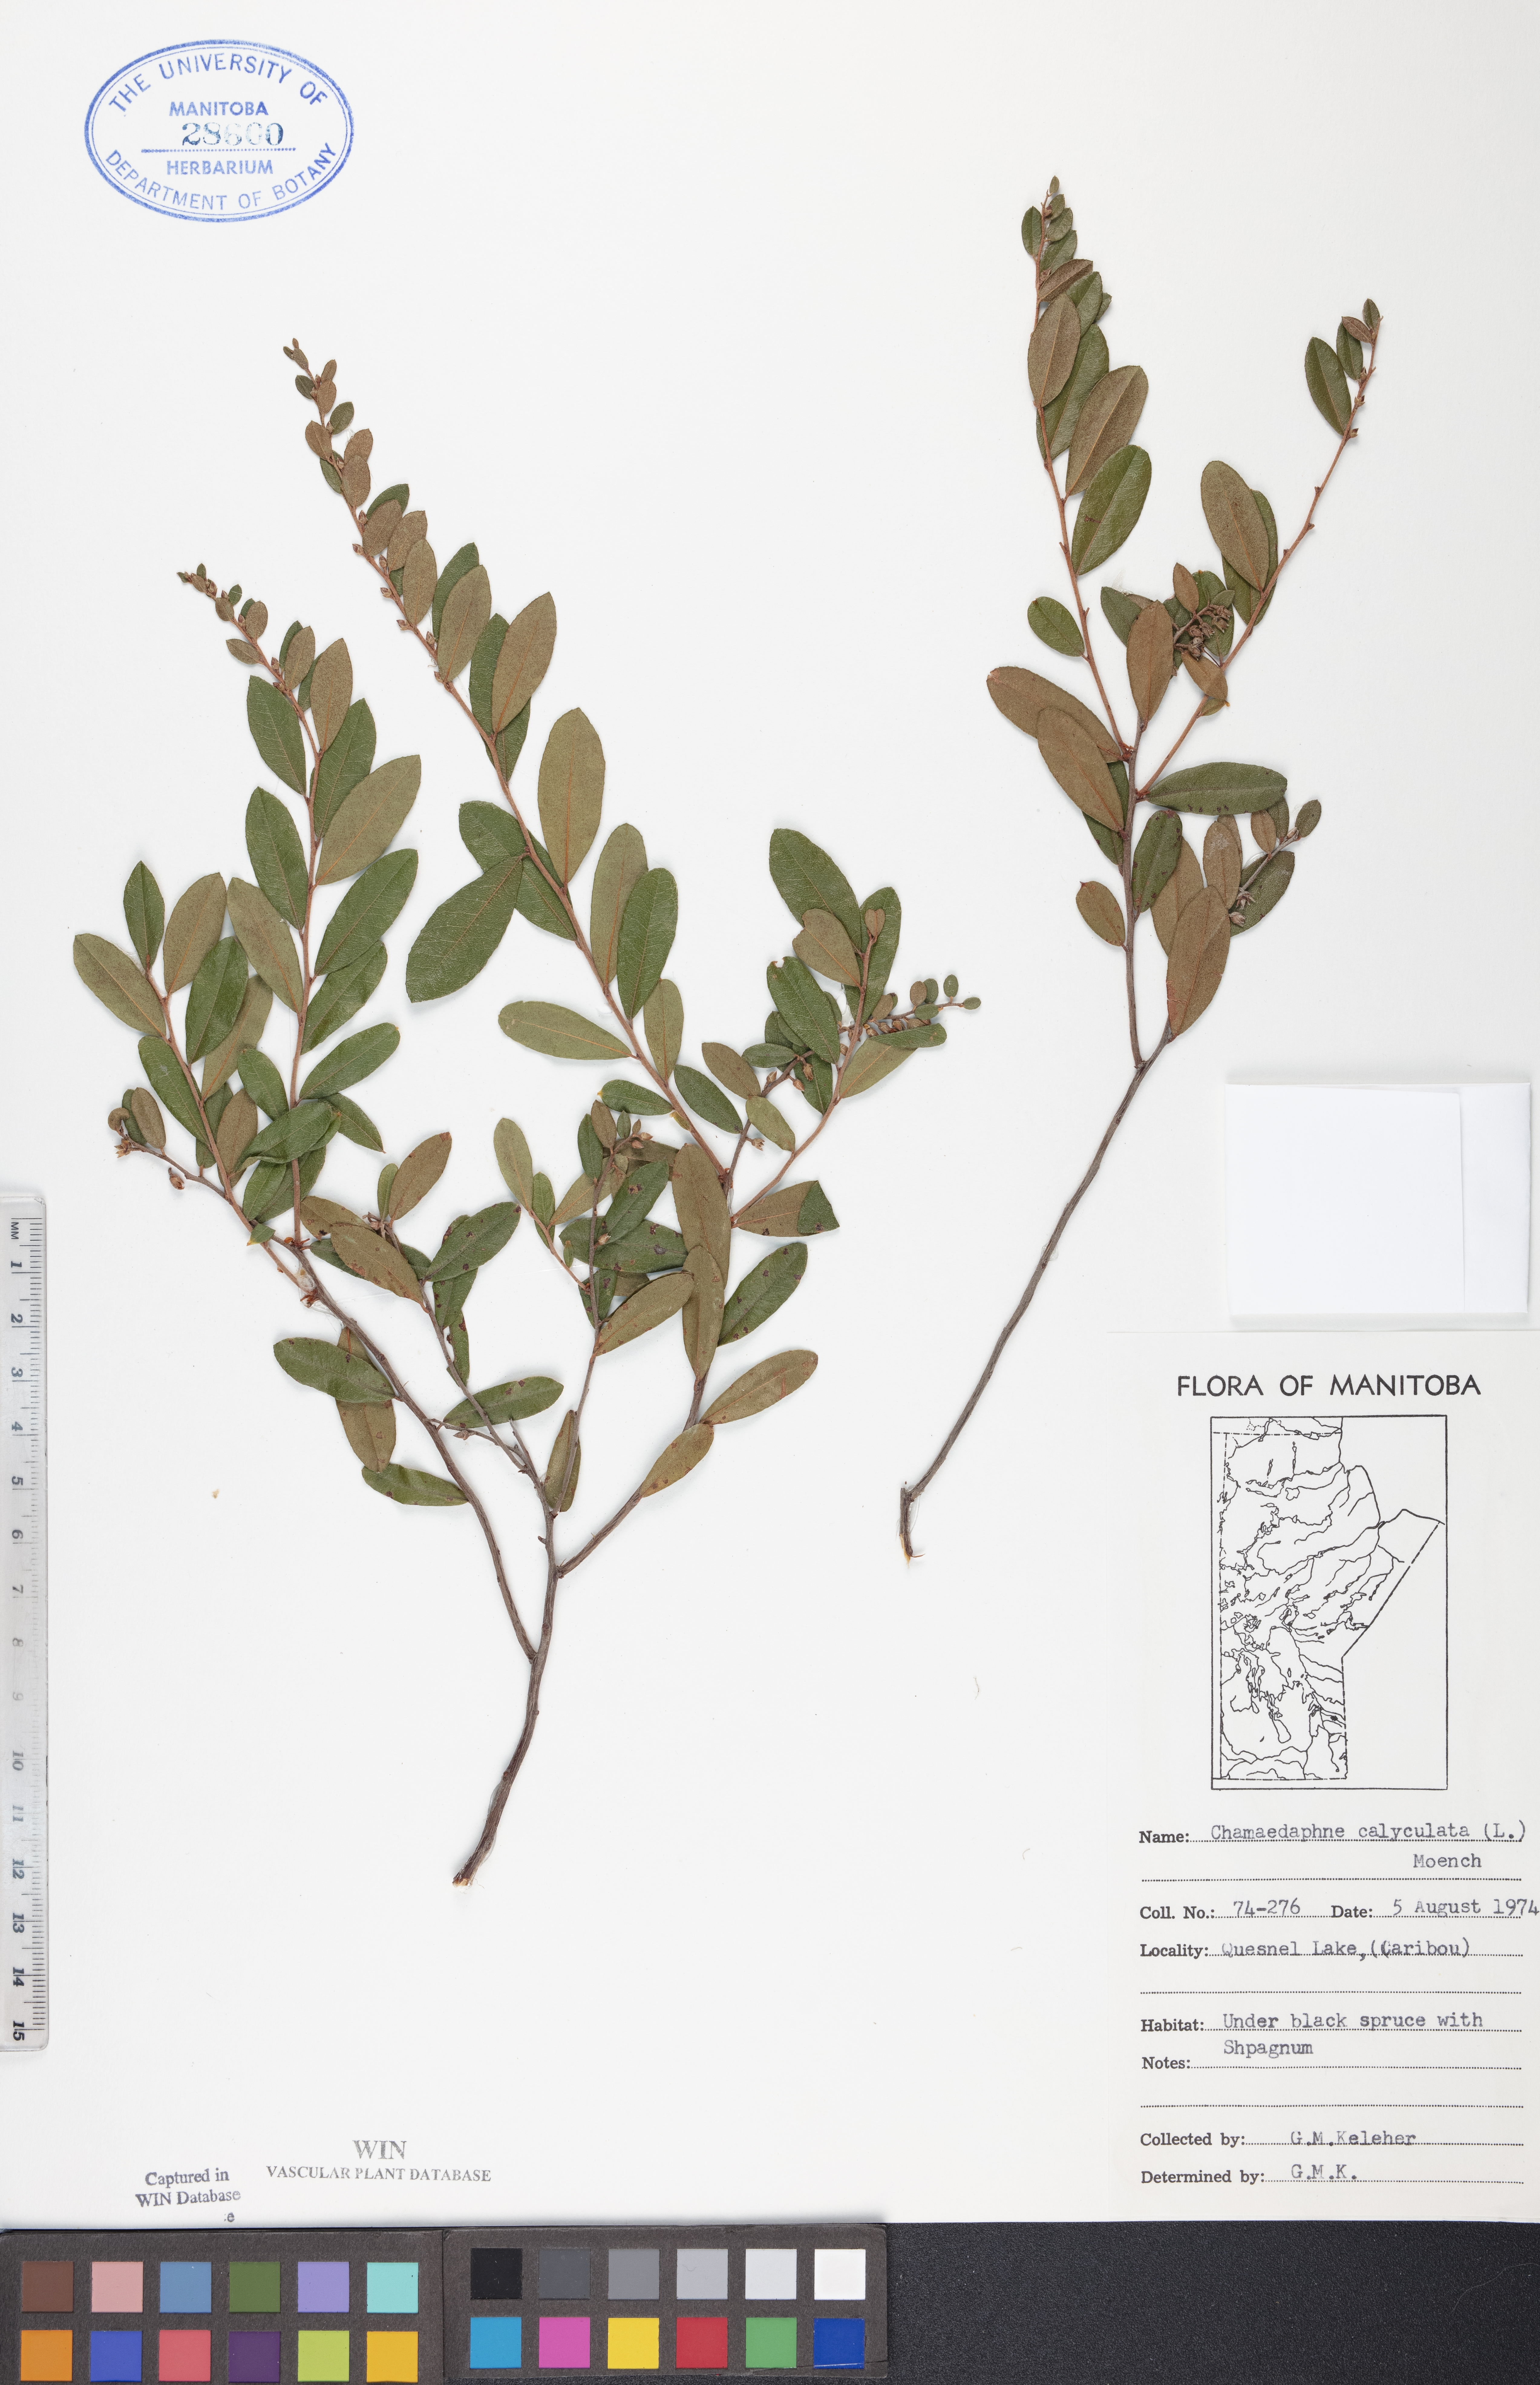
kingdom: Plantae
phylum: Tracheophyta
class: Magnoliopsida
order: Ericales
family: Ericaceae
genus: Chamaedaphne
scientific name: Chamaedaphne calyculata
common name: Leatherleaf
